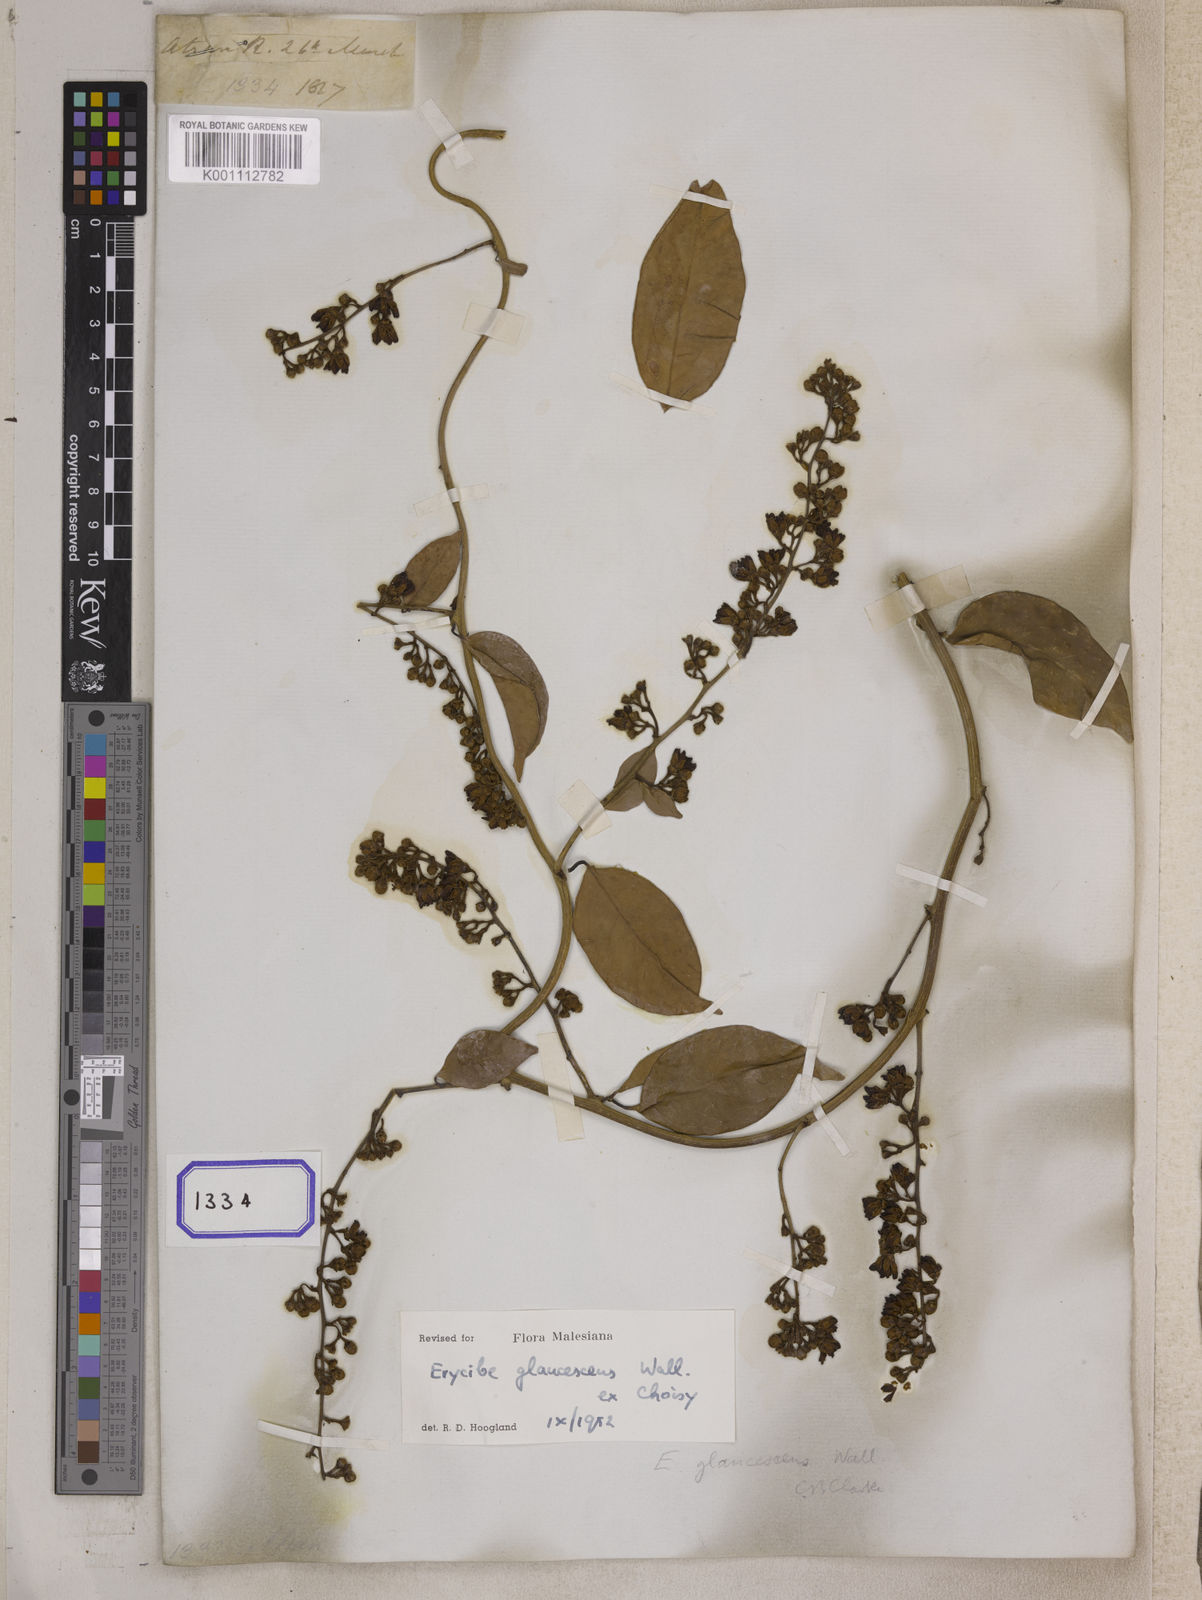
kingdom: Plantae
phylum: Tracheophyta
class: Magnoliopsida
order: Solanales
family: Convolvulaceae
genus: Erycibe
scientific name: Erycibe
